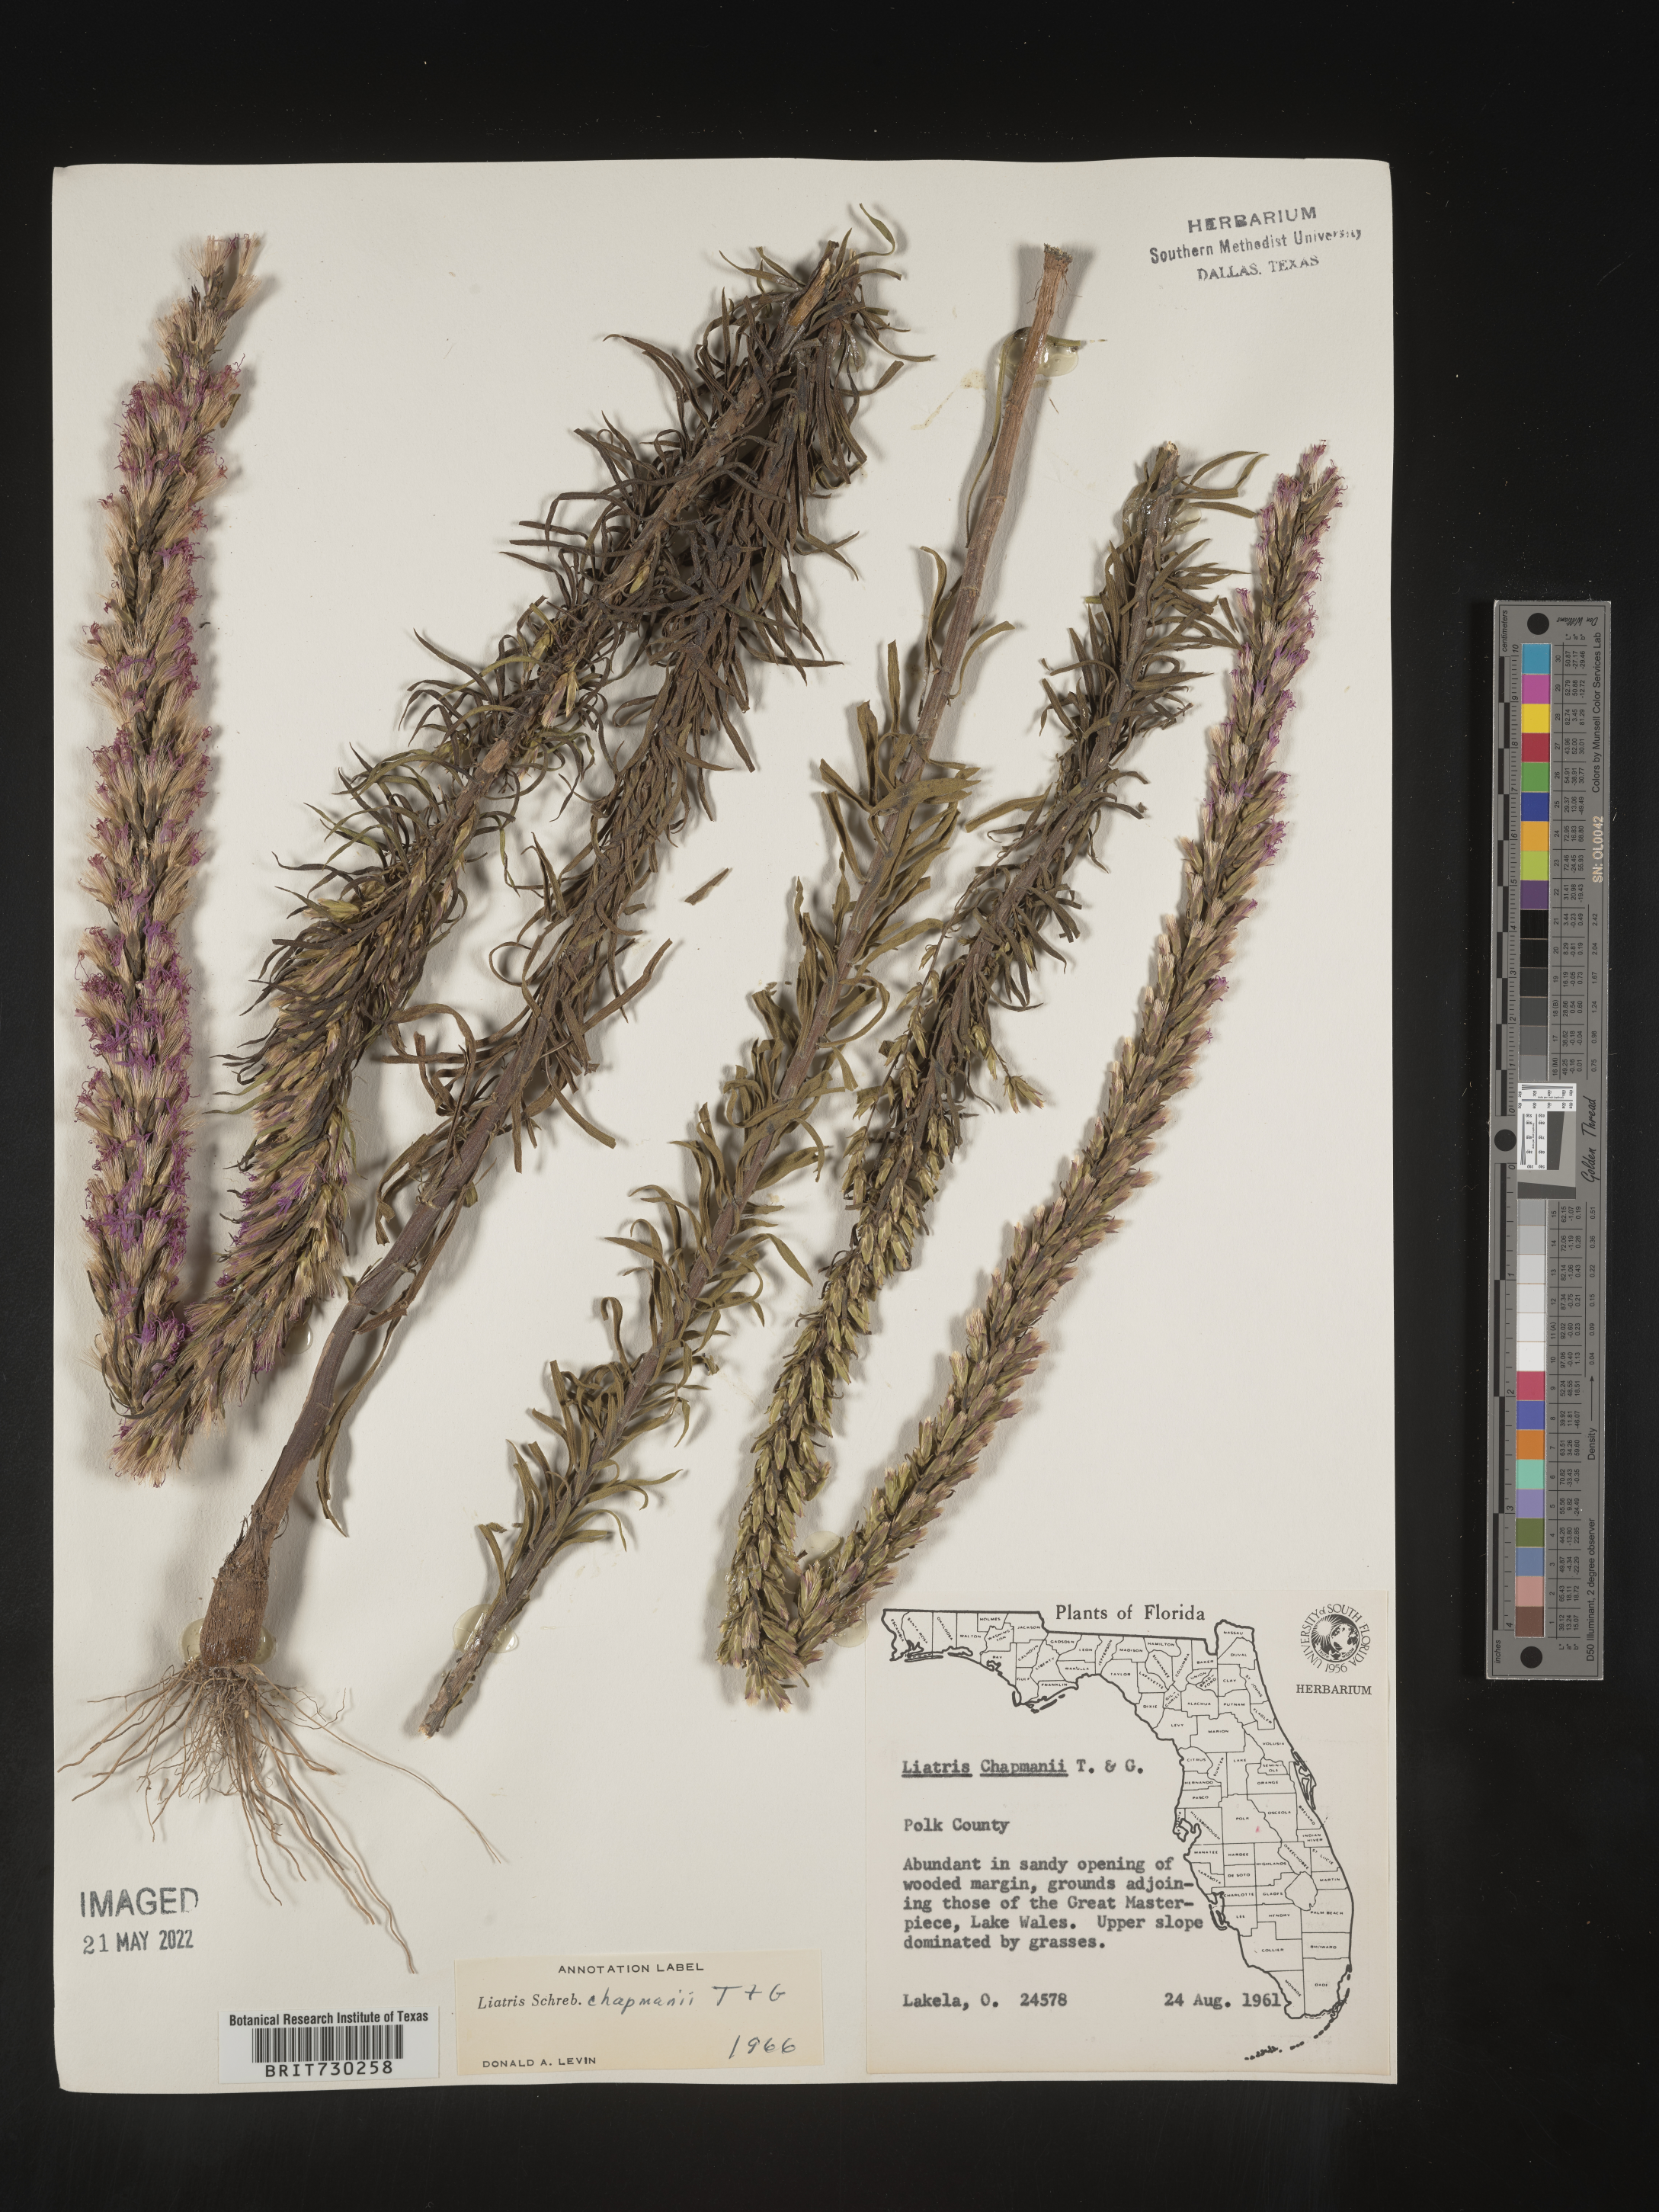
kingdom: Plantae
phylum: Tracheophyta
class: Magnoliopsida
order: Asterales
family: Asteraceae
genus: Liatris
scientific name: Liatris chapmanii
